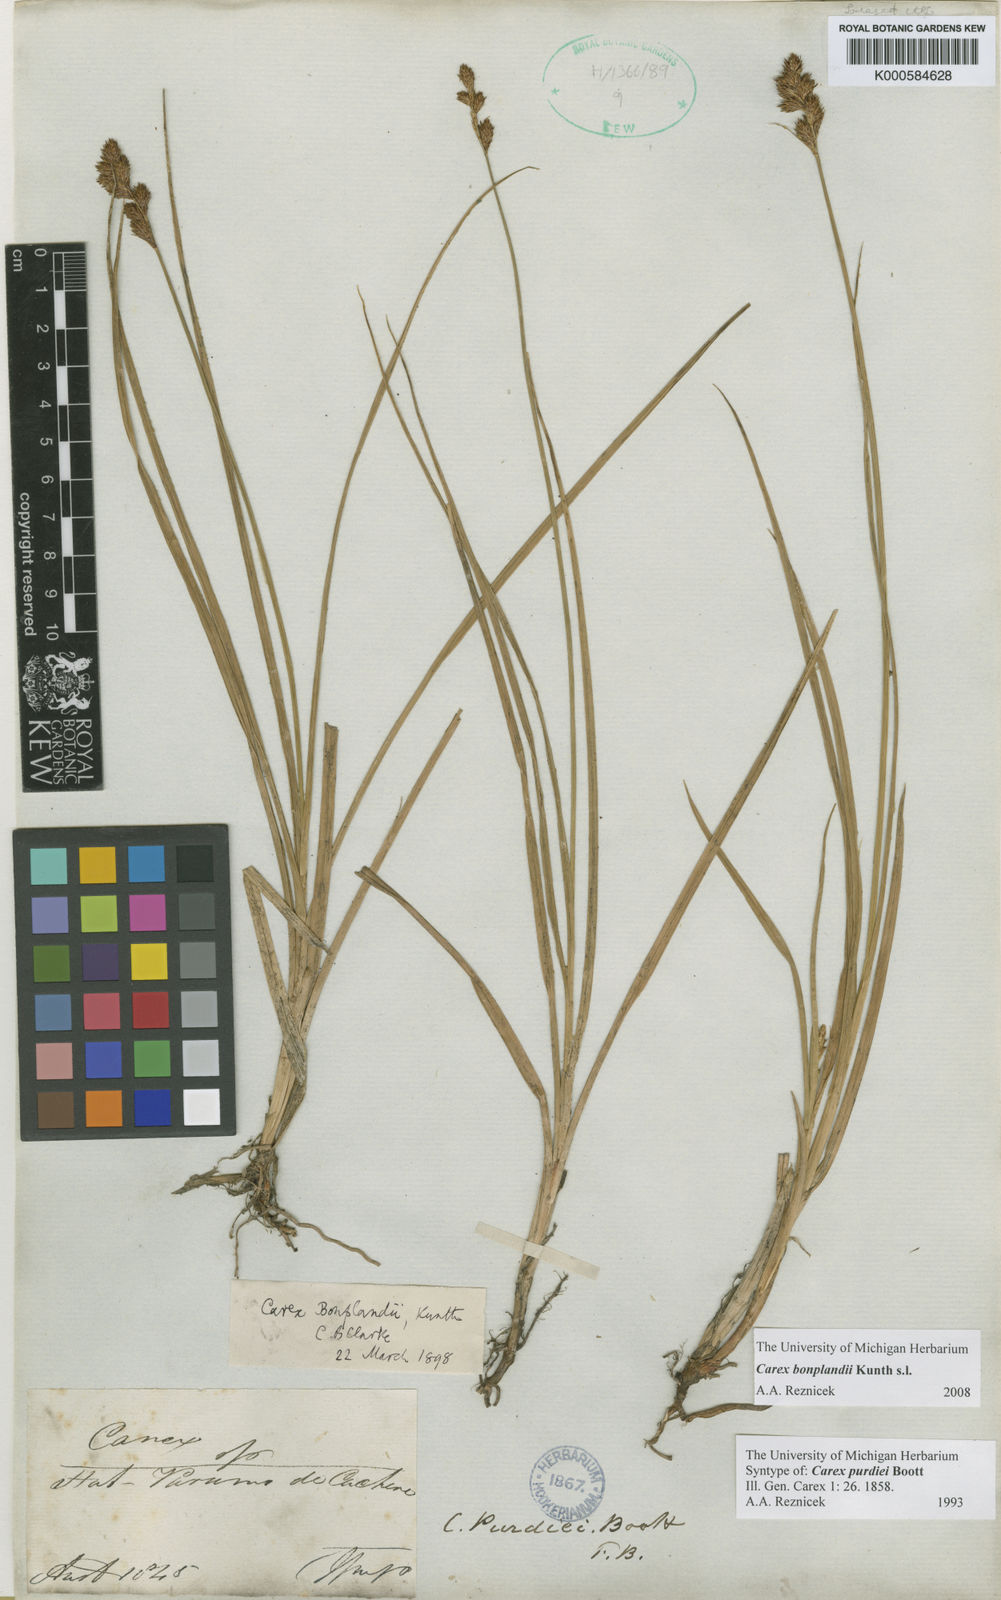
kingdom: Plantae
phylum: Tracheophyta
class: Liliopsida
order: Poales
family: Cyperaceae
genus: Carex
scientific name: Carex bonplandii
